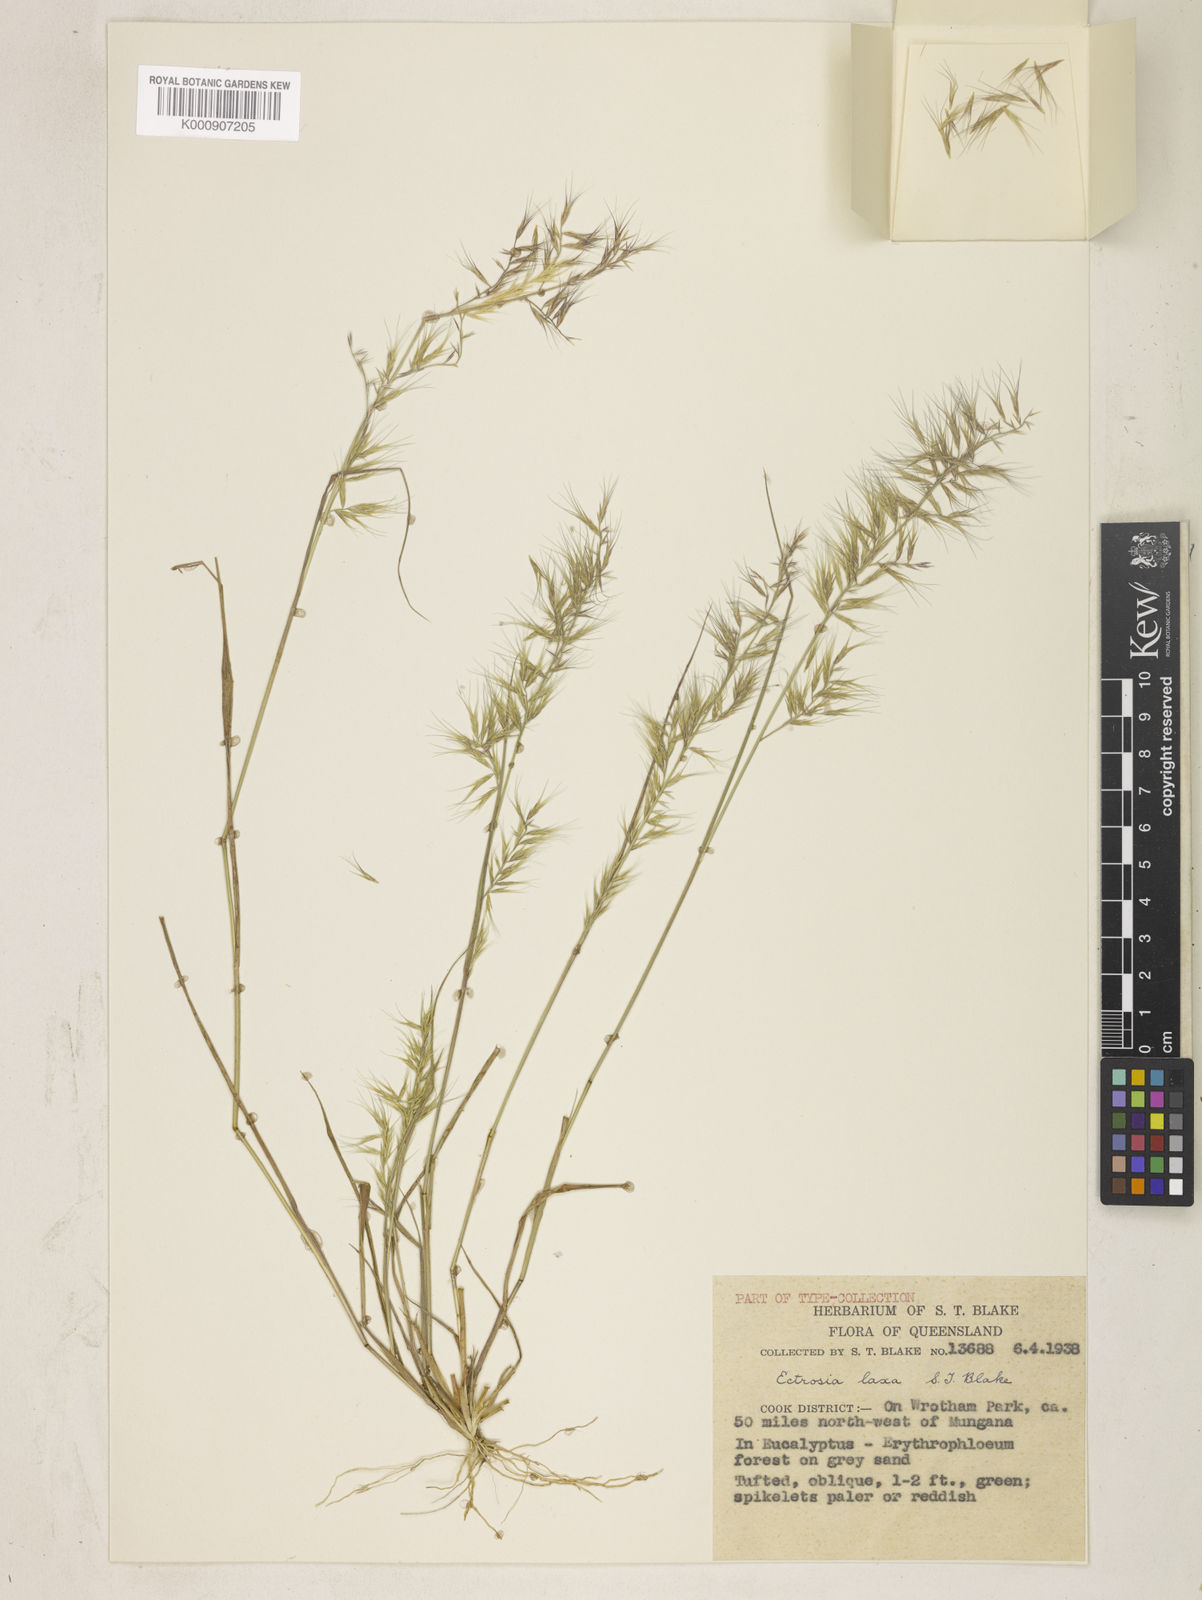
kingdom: Plantae
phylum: Tracheophyta
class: Liliopsida
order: Poales
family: Poaceae
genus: Eragrostis
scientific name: Eragrostis divergens
